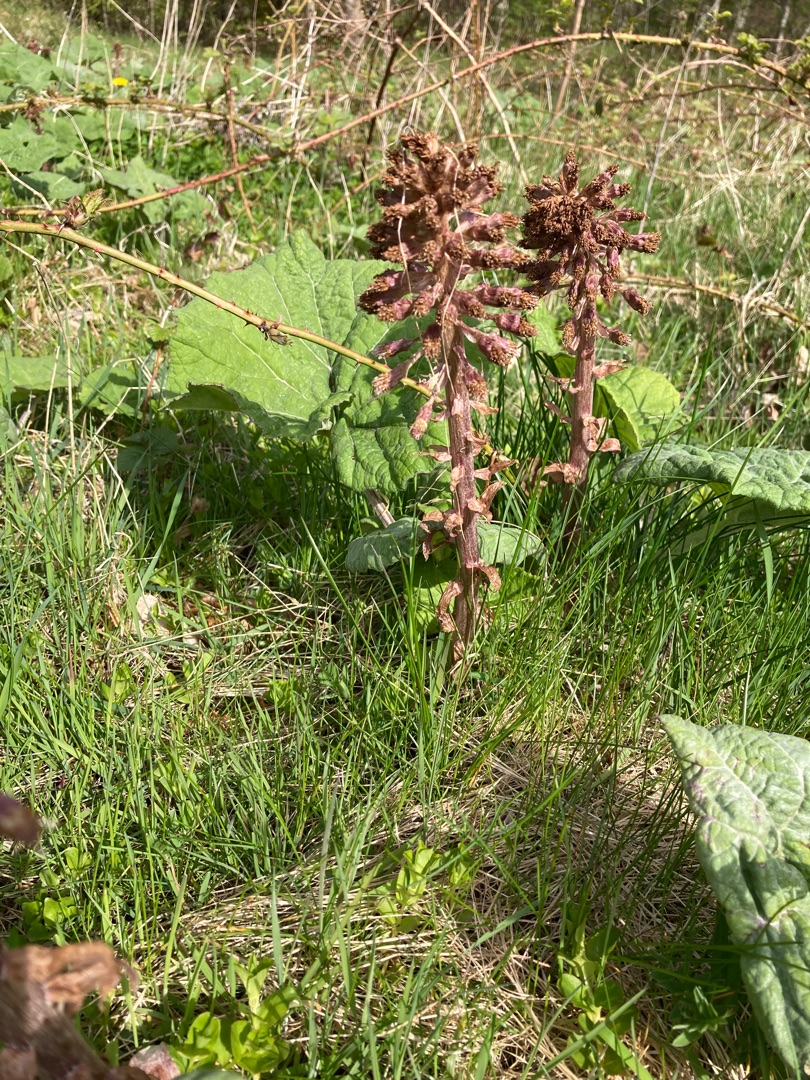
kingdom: Plantae
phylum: Tracheophyta
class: Magnoliopsida
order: Asterales
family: Asteraceae
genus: Petasites
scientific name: Petasites hybridus
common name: Rød hestehov
